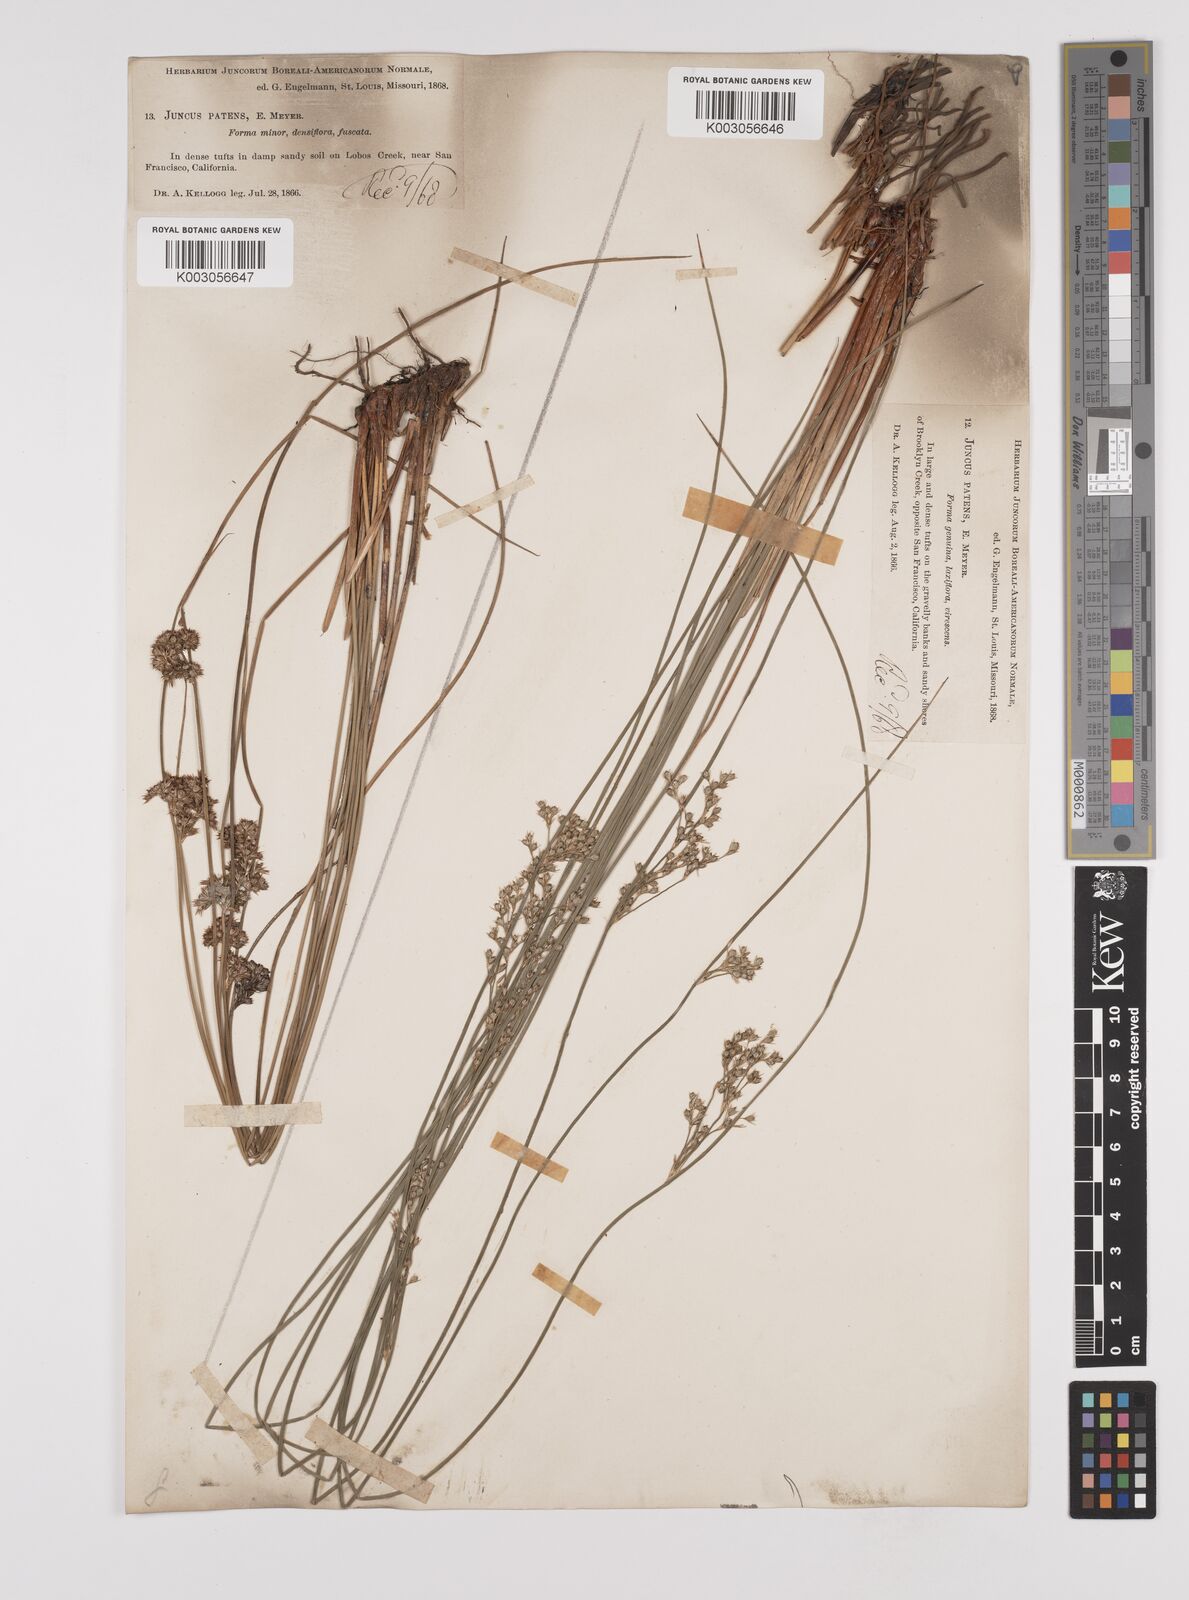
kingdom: Plantae
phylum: Tracheophyta
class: Liliopsida
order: Poales
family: Juncaceae
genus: Juncus
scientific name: Juncus patens
